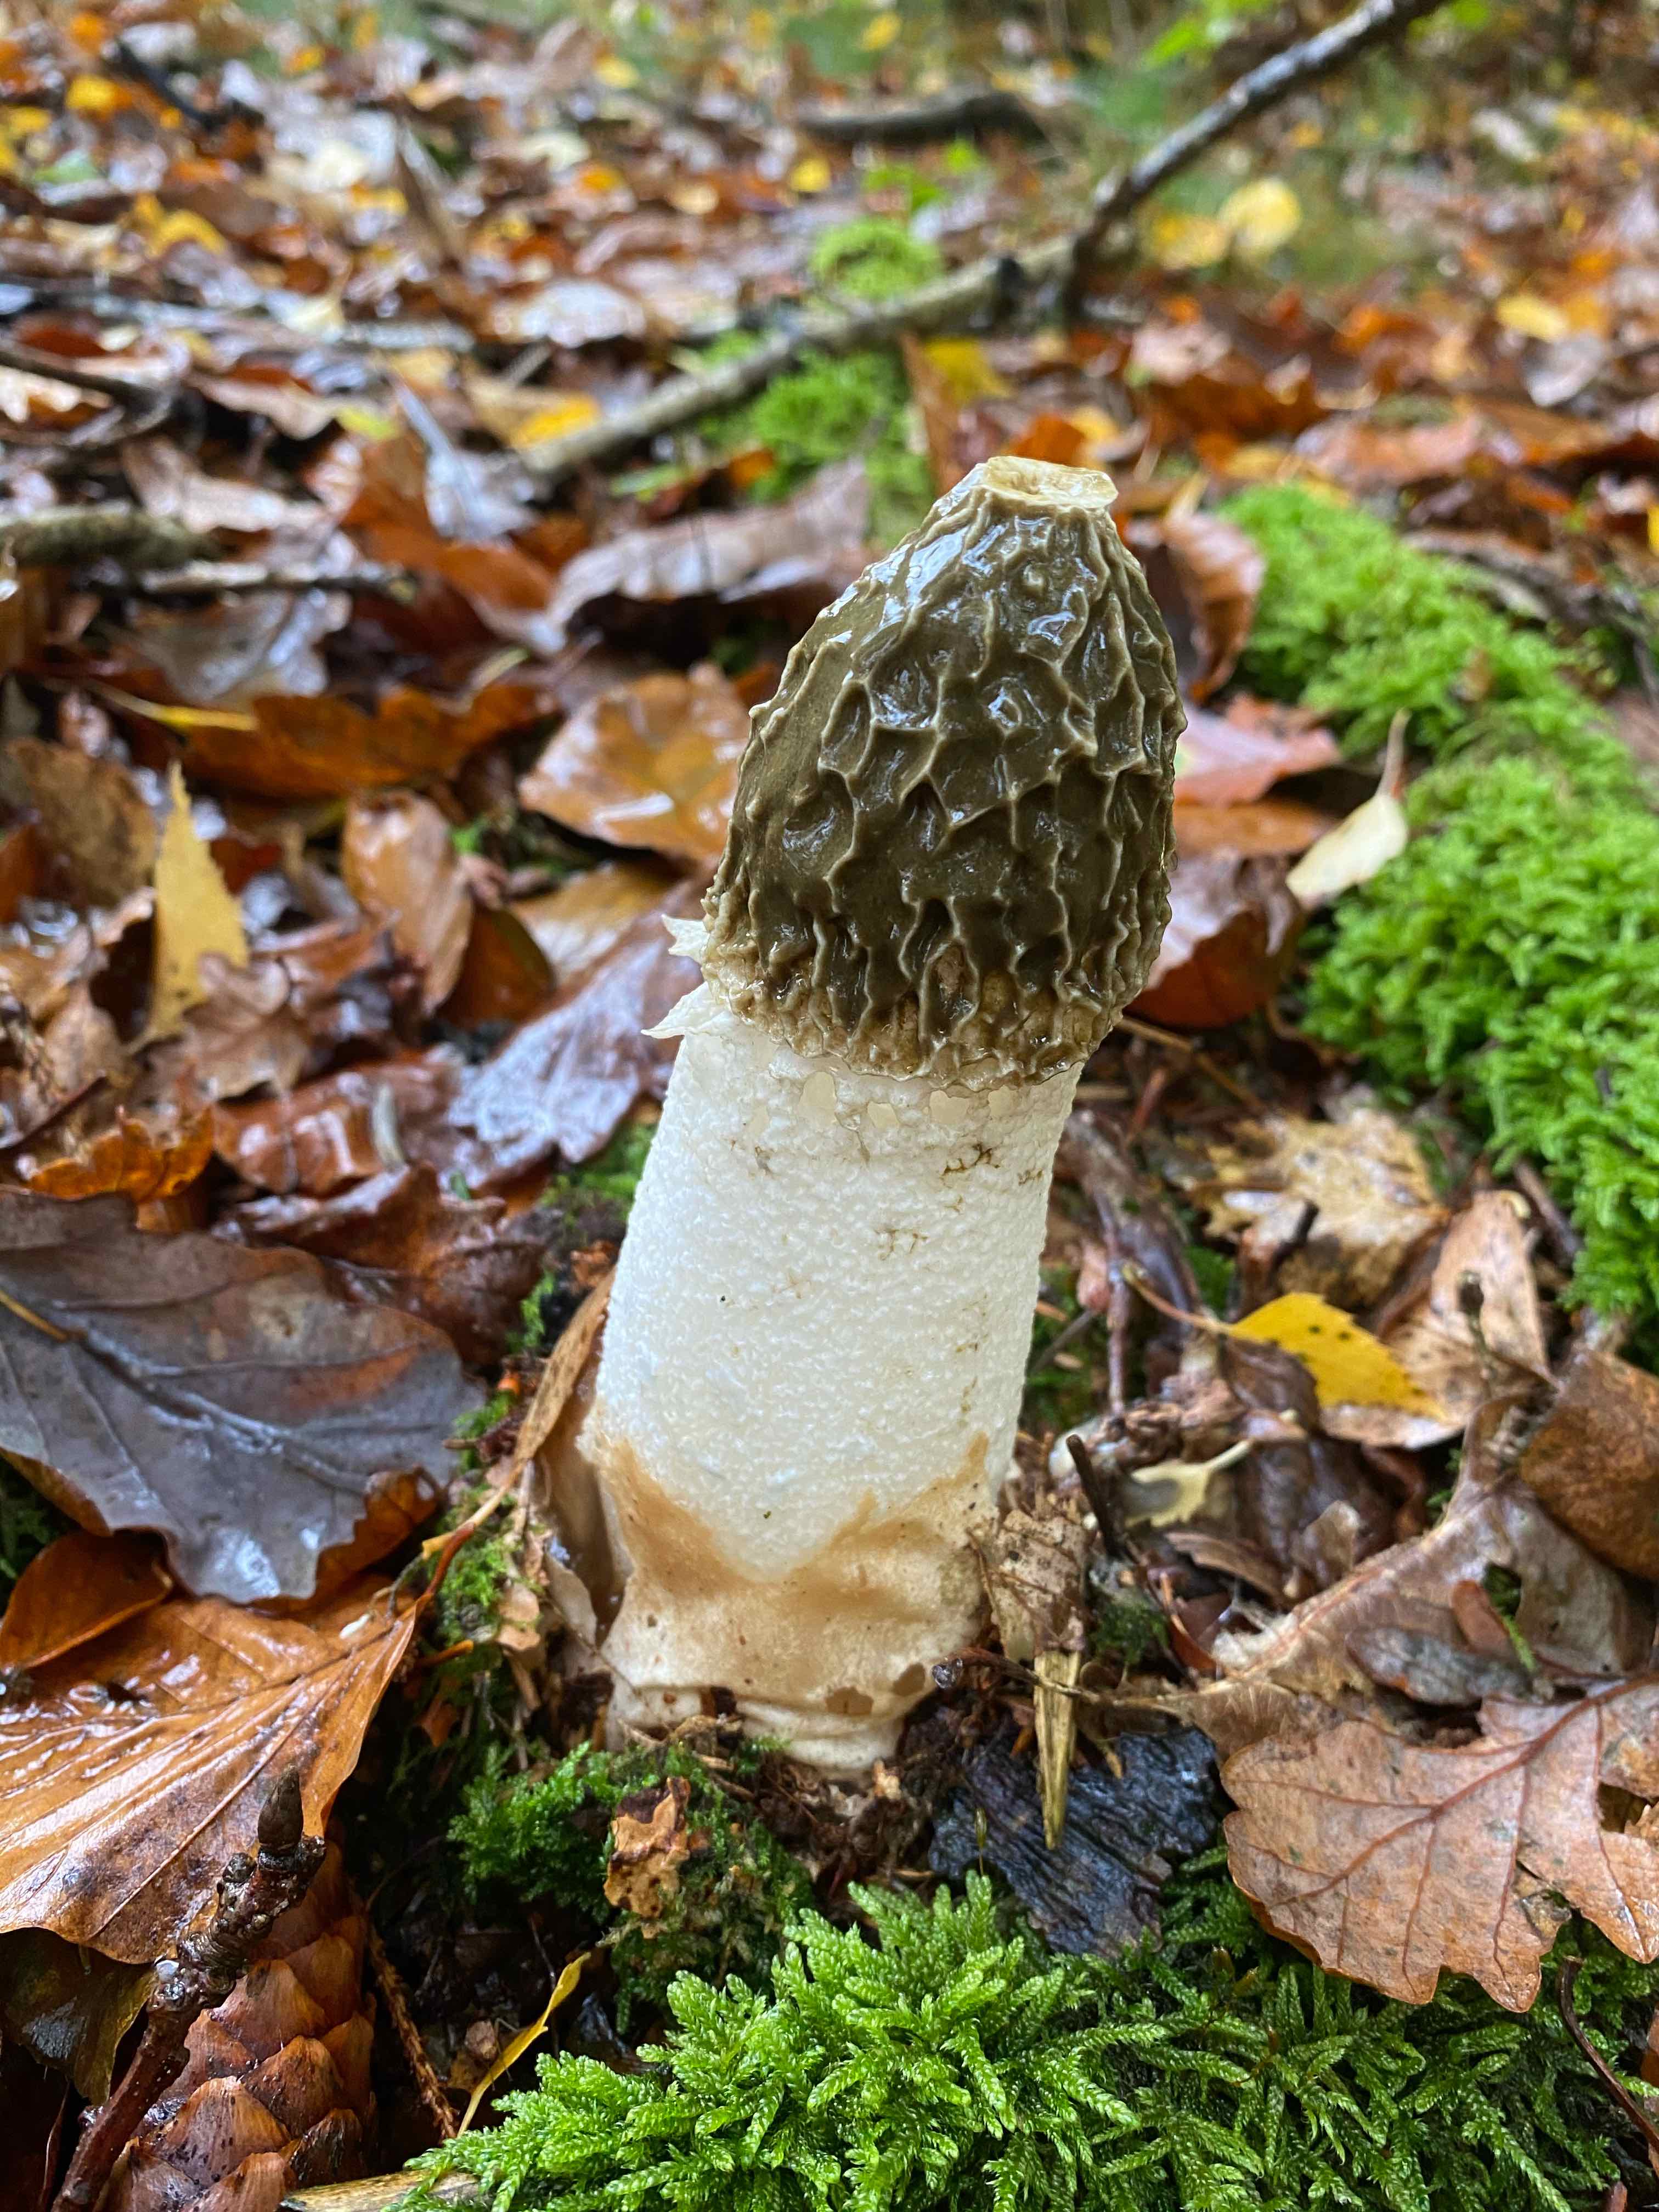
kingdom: Fungi
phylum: Basidiomycota
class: Agaricomycetes
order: Phallales
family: Phallaceae
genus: Phallus
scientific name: Phallus impudicus
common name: almindelig stinksvamp
